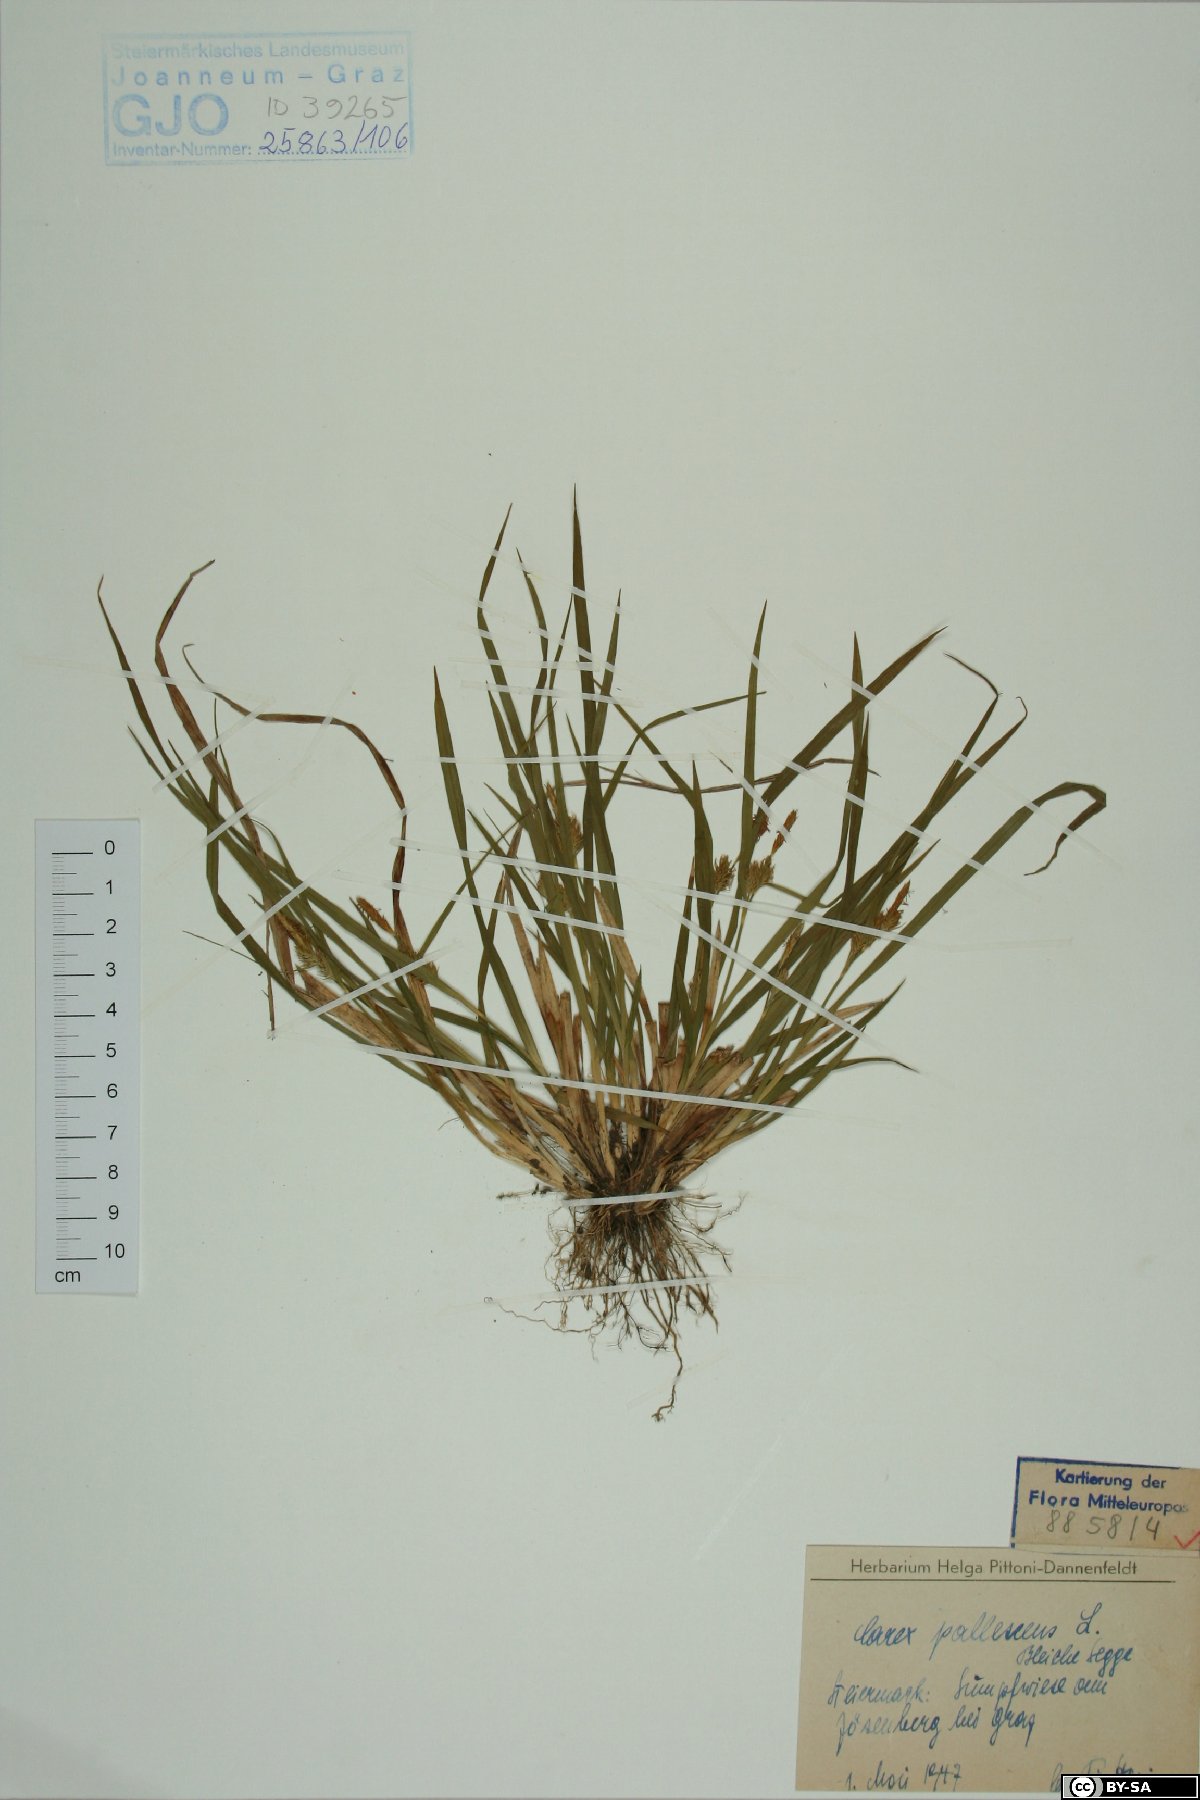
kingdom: Plantae
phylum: Tracheophyta
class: Liliopsida
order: Poales
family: Cyperaceae
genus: Carex
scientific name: Carex pallescens
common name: Pale sedge
